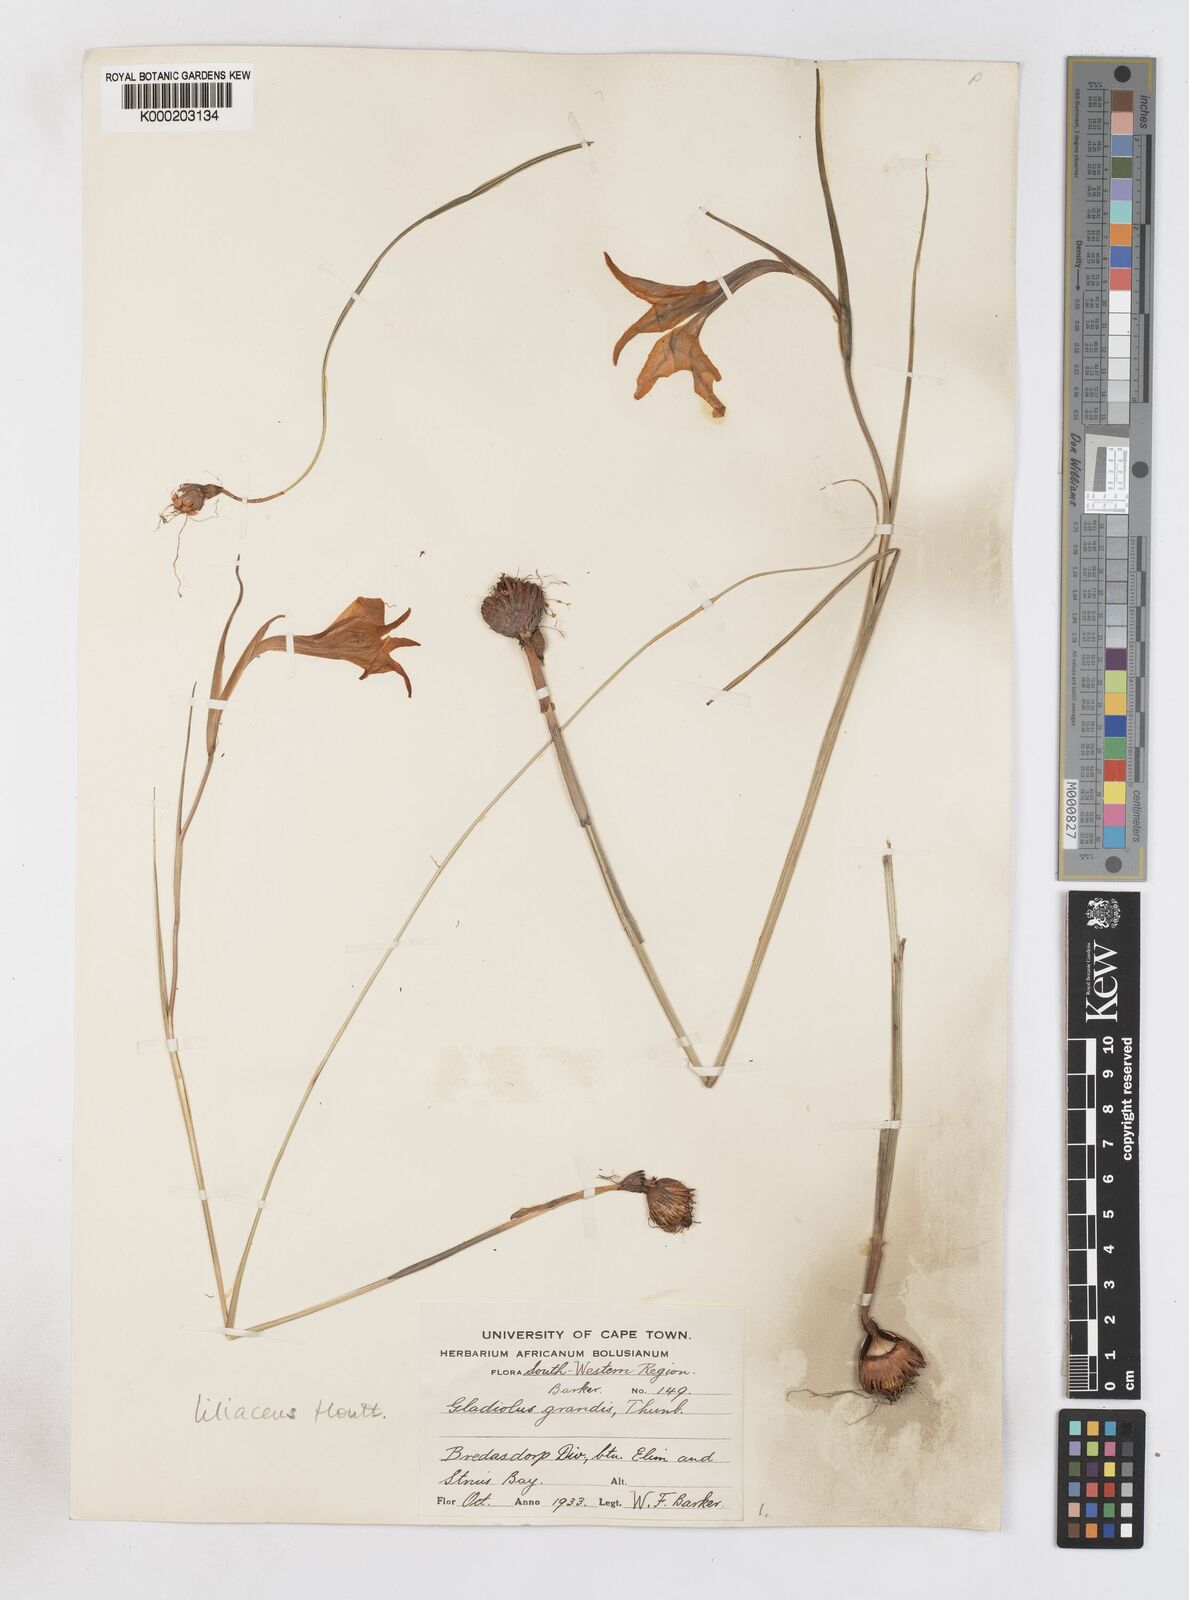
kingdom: Plantae
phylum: Tracheophyta
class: Liliopsida
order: Asparagales
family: Iridaceae
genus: Gladiolus
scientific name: Gladiolus liliaceus
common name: Large brown afrikaner
